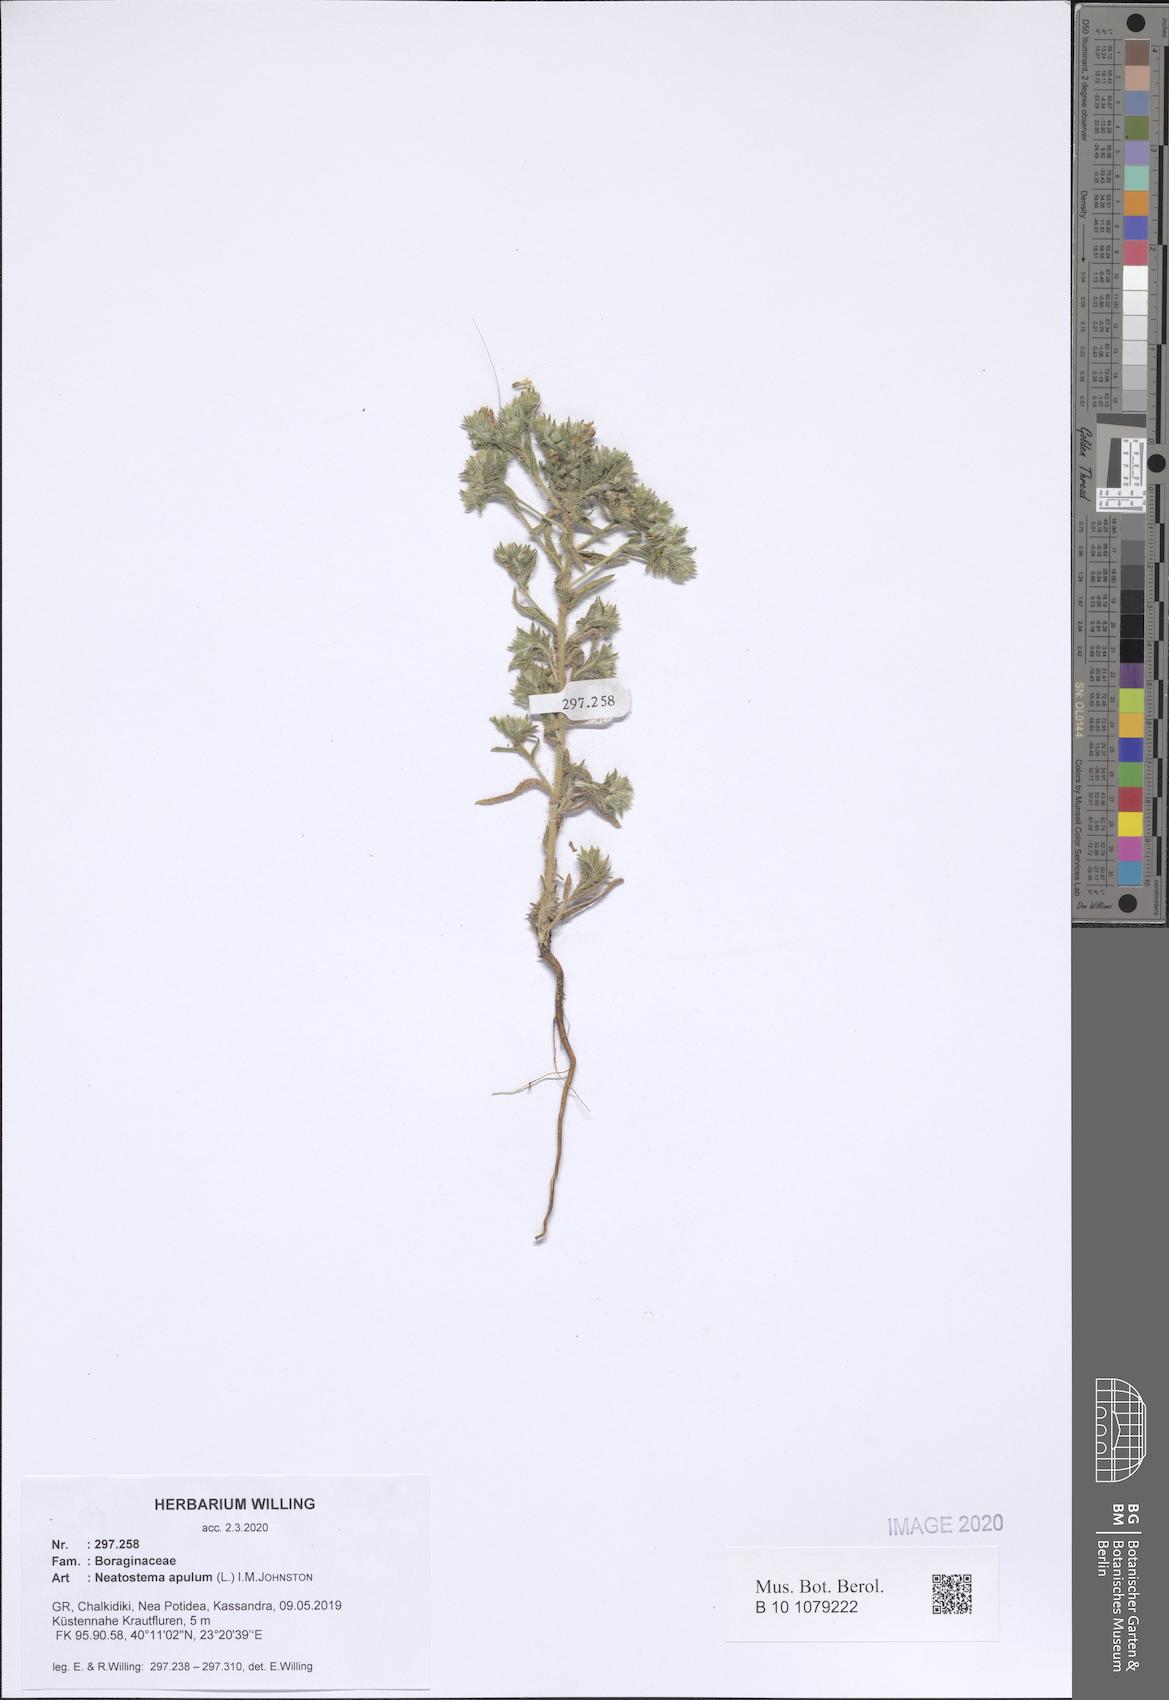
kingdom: Plantae
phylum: Tracheophyta
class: Magnoliopsida
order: Boraginales
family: Boraginaceae
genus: Neatostema
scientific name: Neatostema apulum
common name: Hairy sheepweed
